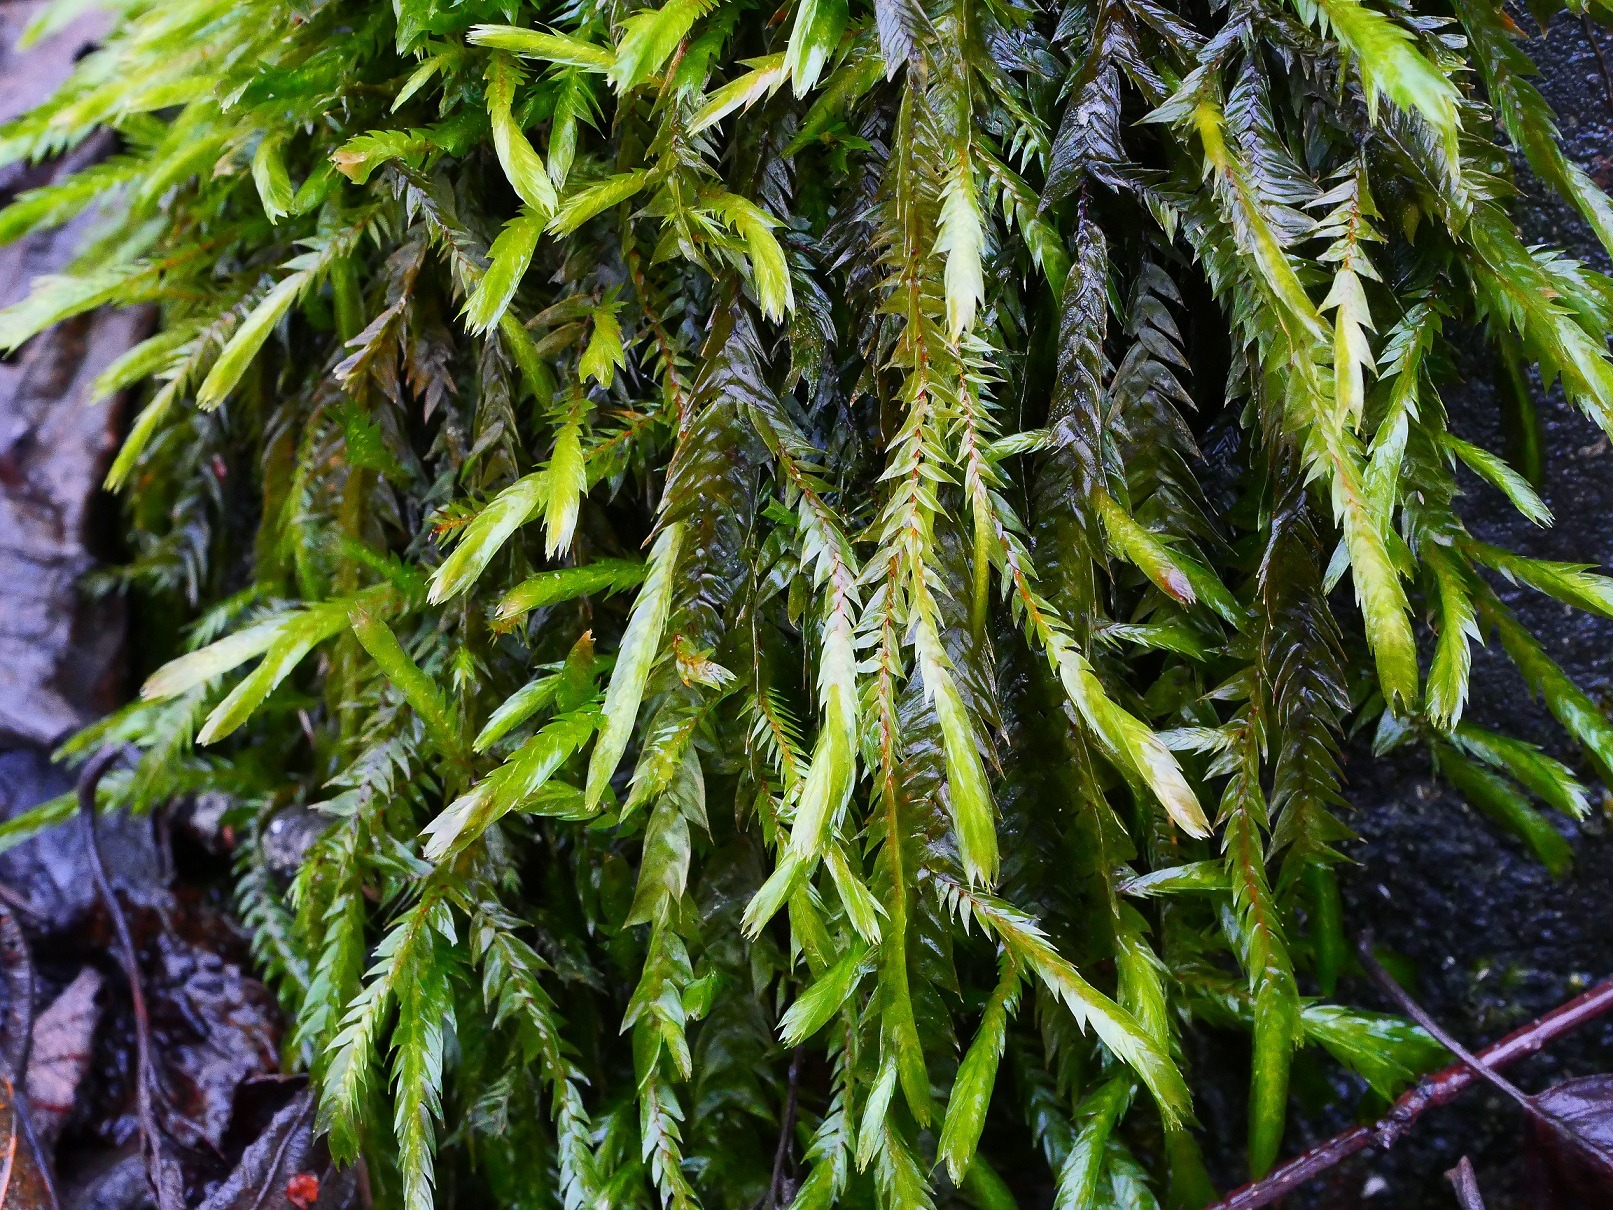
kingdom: Plantae
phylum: Bryophyta
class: Bryopsida
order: Hypnales
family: Fontinalaceae
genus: Fontinalis
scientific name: Fontinalis antipyretica
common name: Stor kildemos
